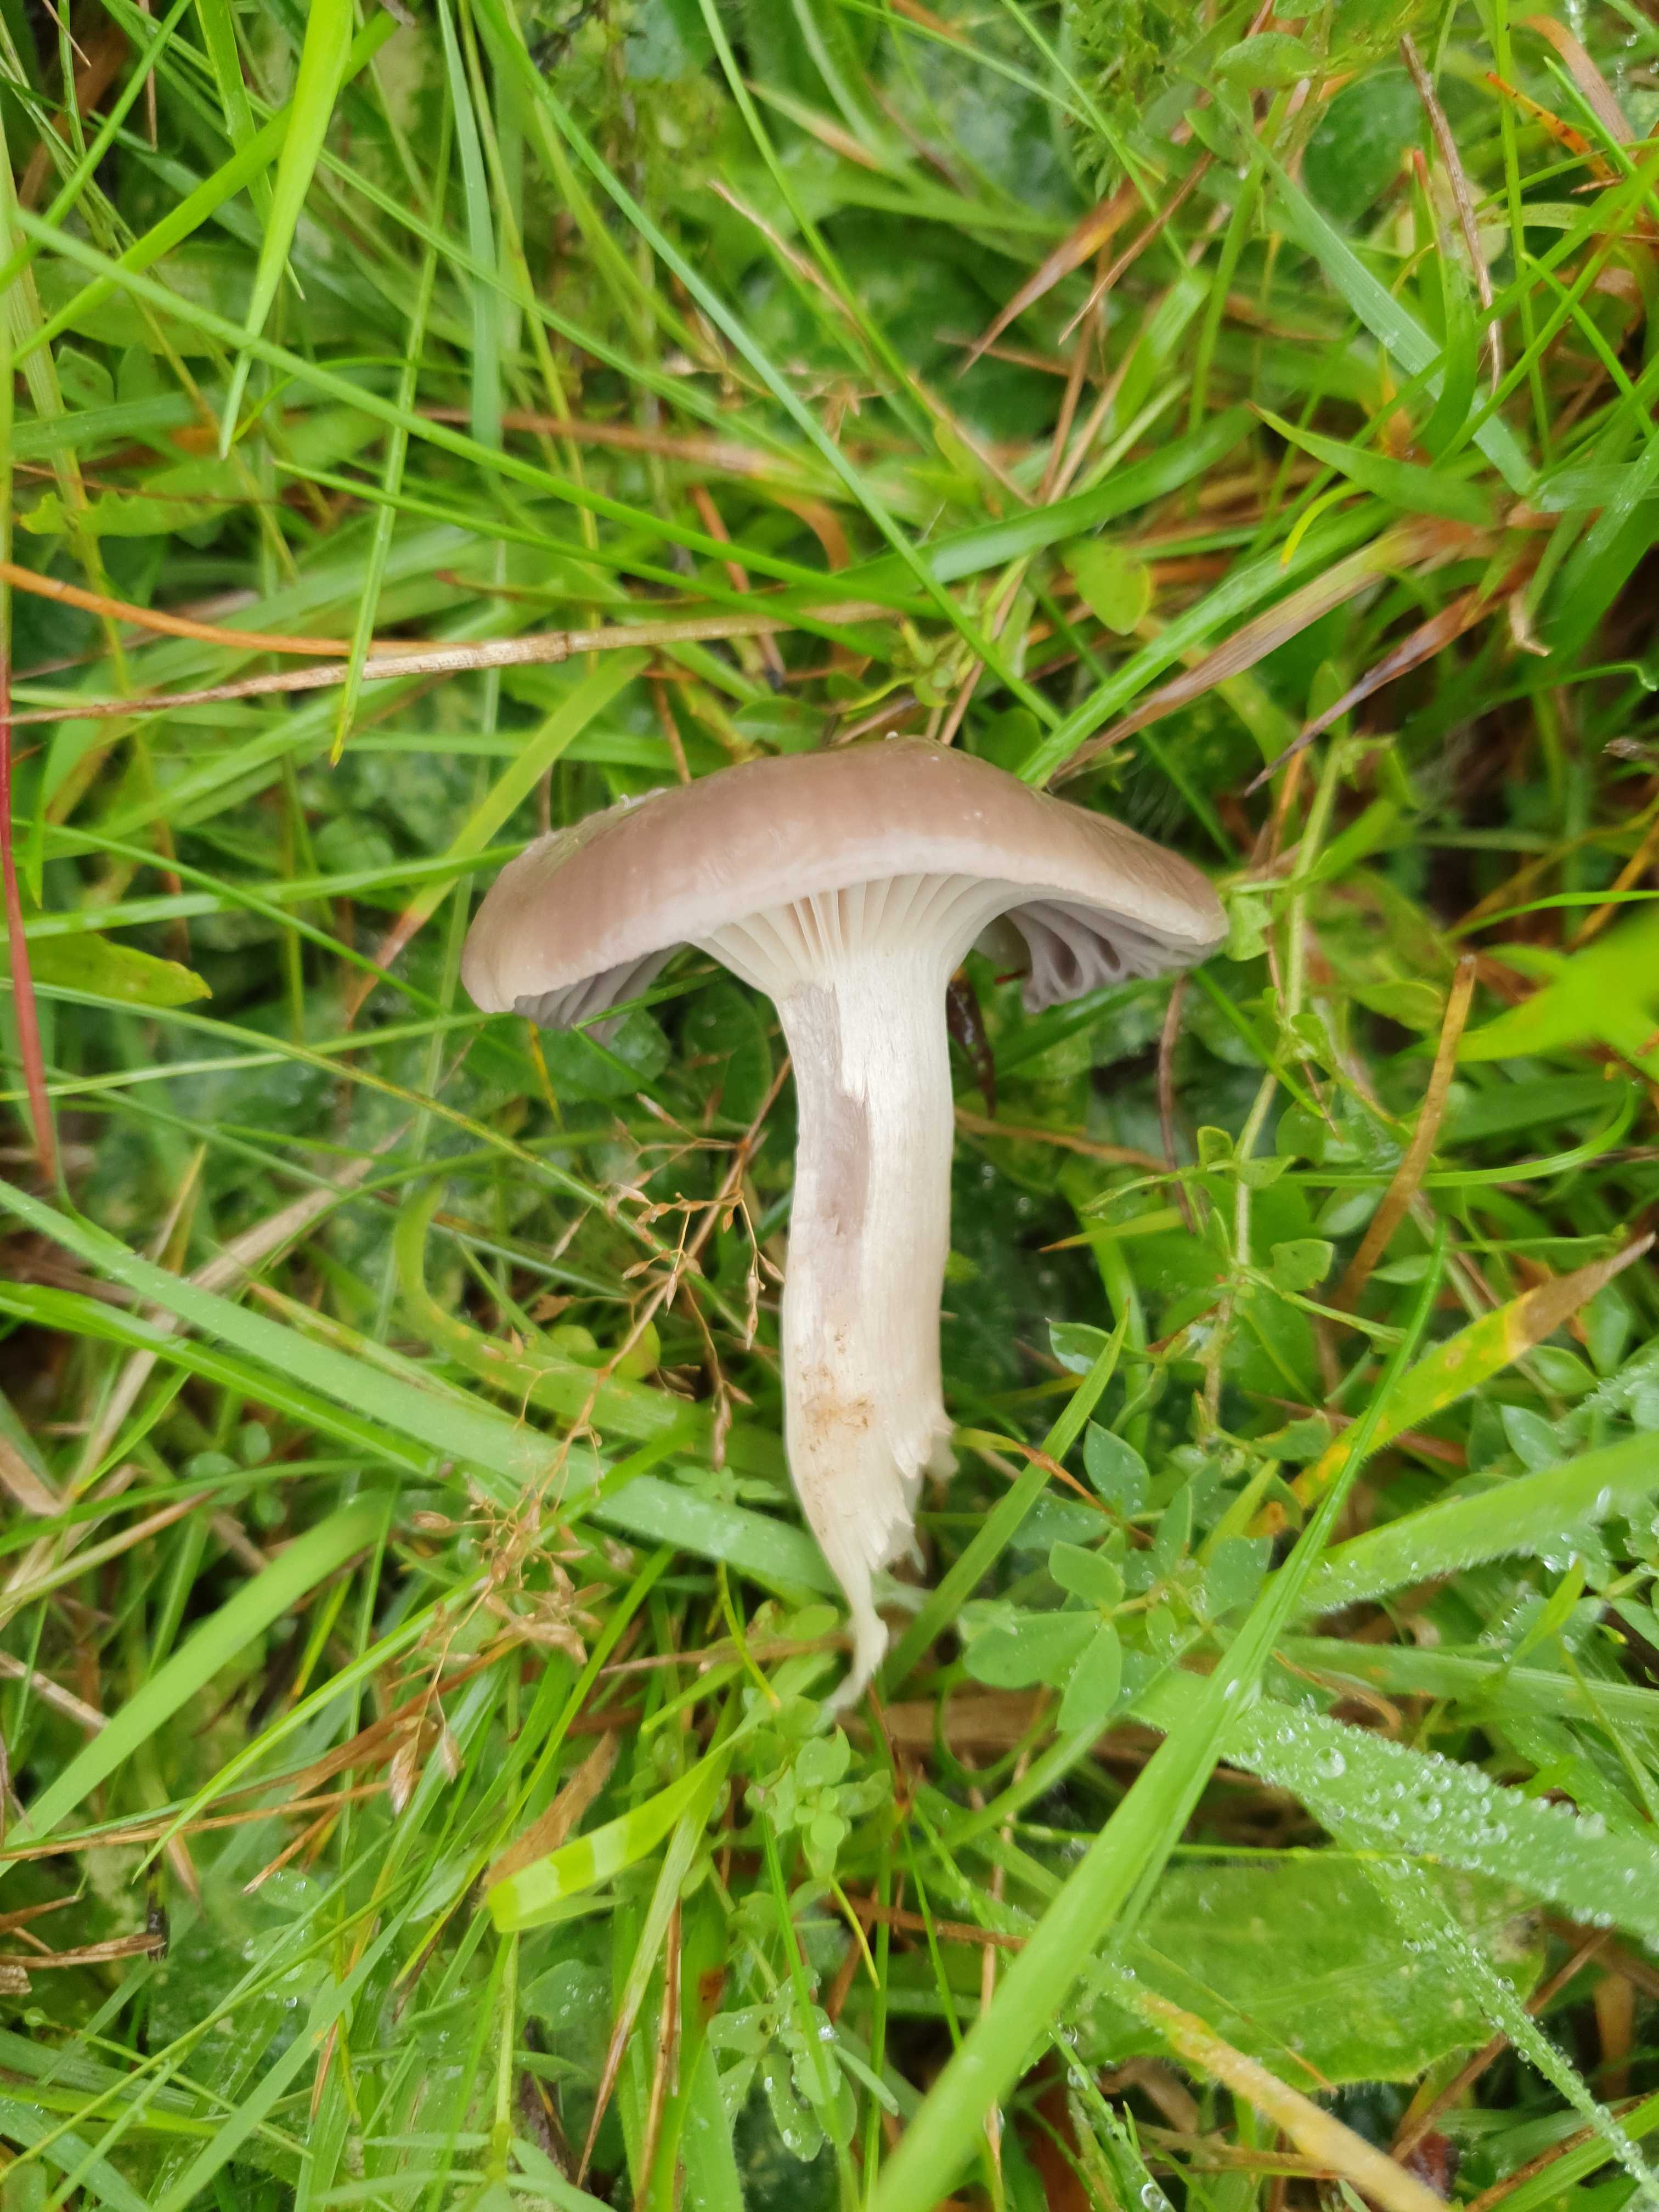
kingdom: Fungi
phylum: Basidiomycota
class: Agaricomycetes
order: Agaricales
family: Hygrophoraceae
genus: Cuphophyllus
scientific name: Cuphophyllus flavipes
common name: gulfodet vokshat
